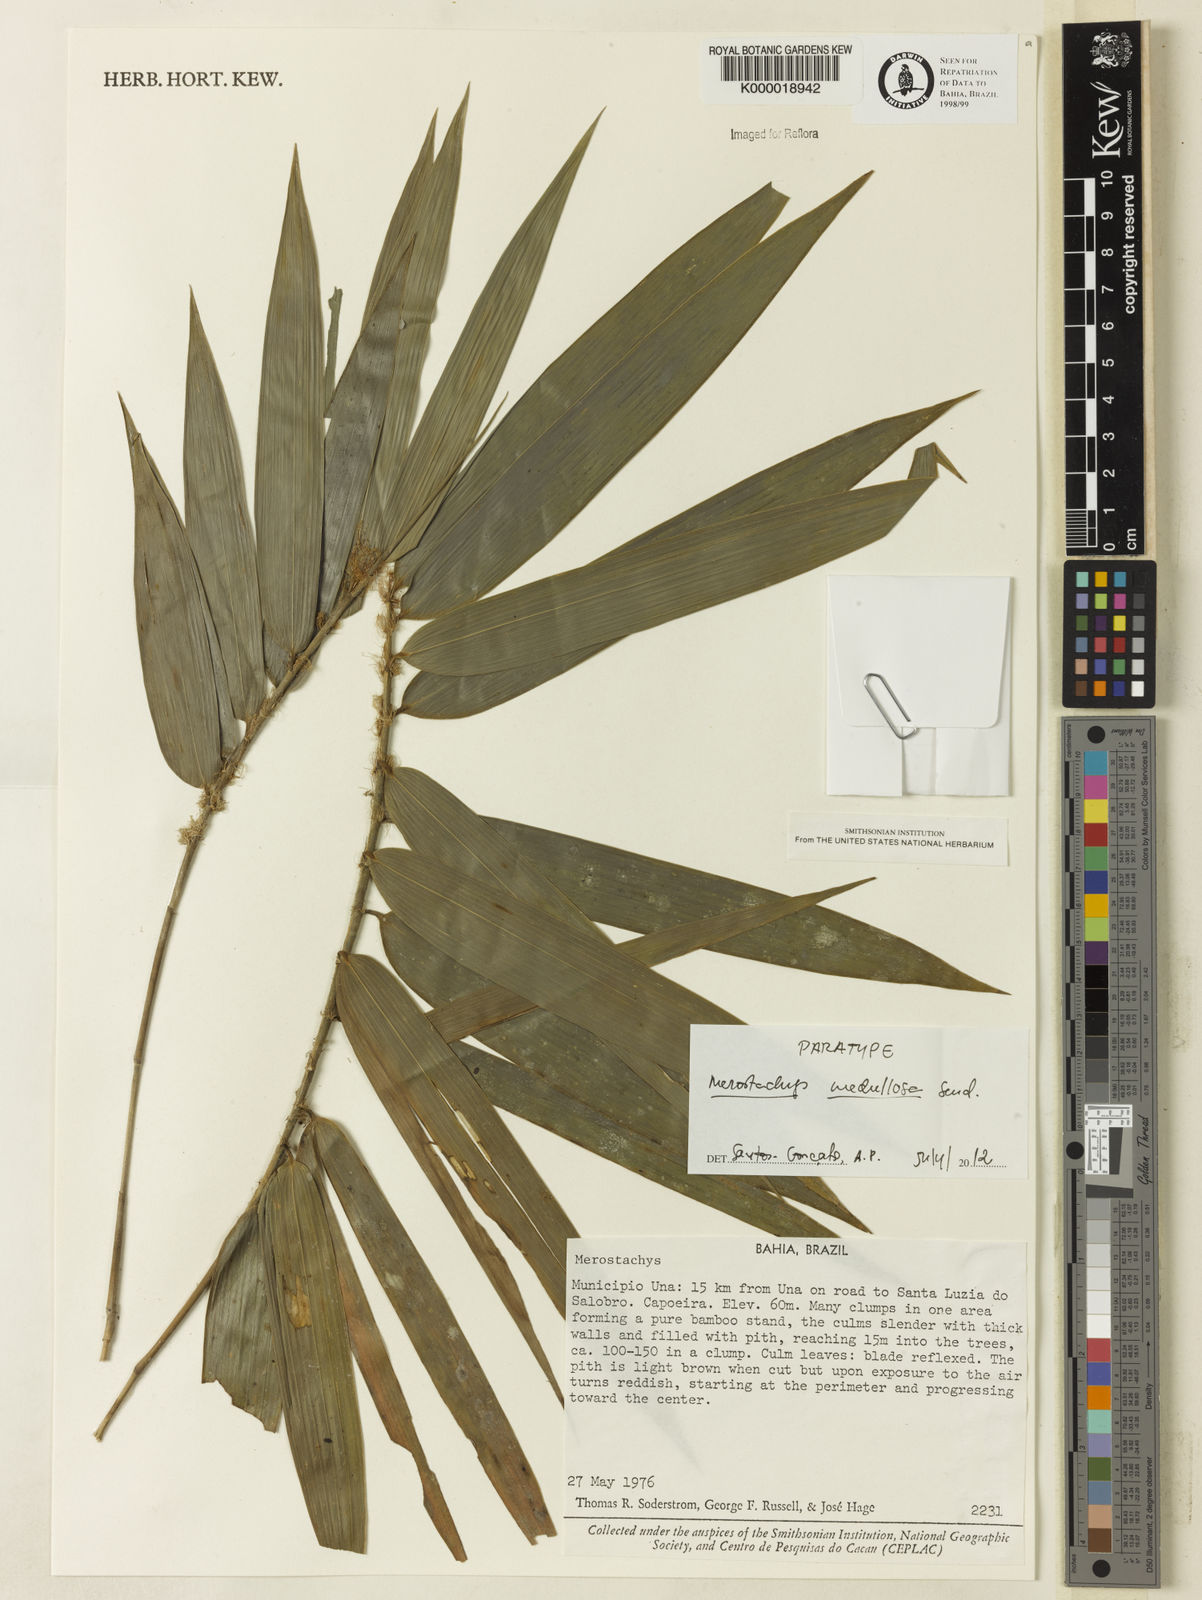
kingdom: Plantae
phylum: Tracheophyta
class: Liliopsida
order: Poales
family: Poaceae
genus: Merostachys
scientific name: Merostachys medullosa
